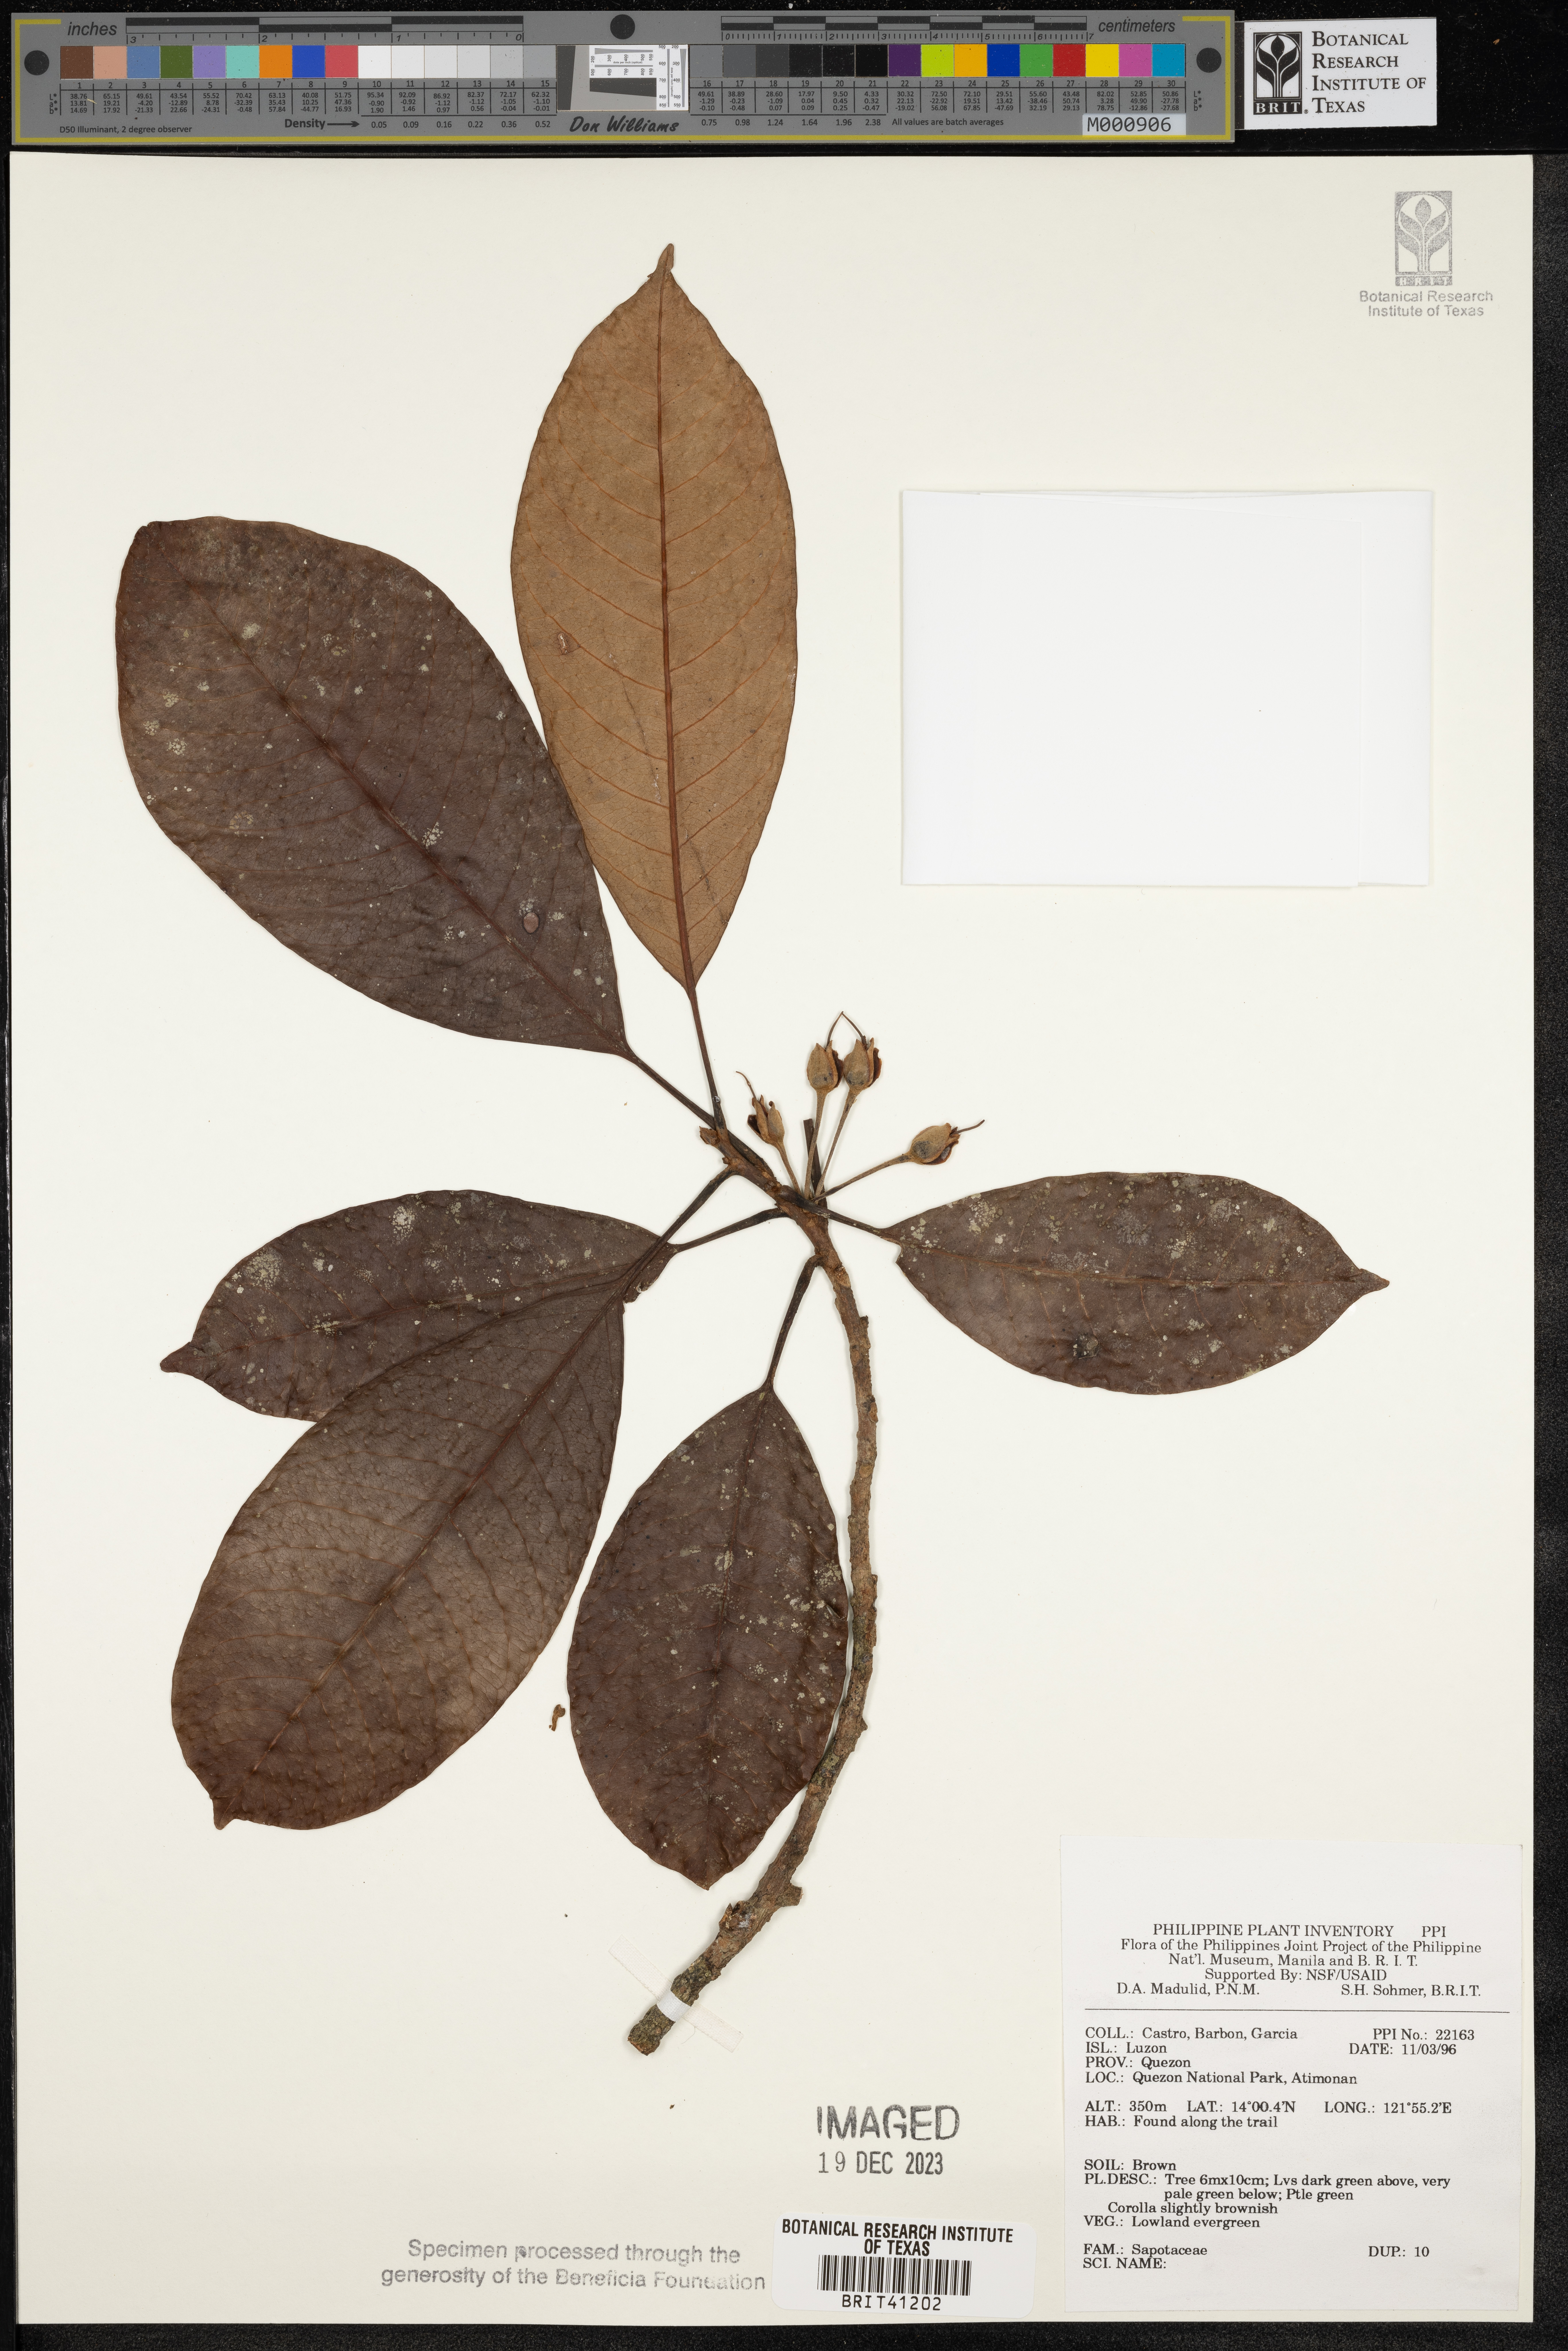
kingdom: Plantae
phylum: Tracheophyta
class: Magnoliopsida
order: Ericales
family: Sapotaceae
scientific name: Sapotaceae
